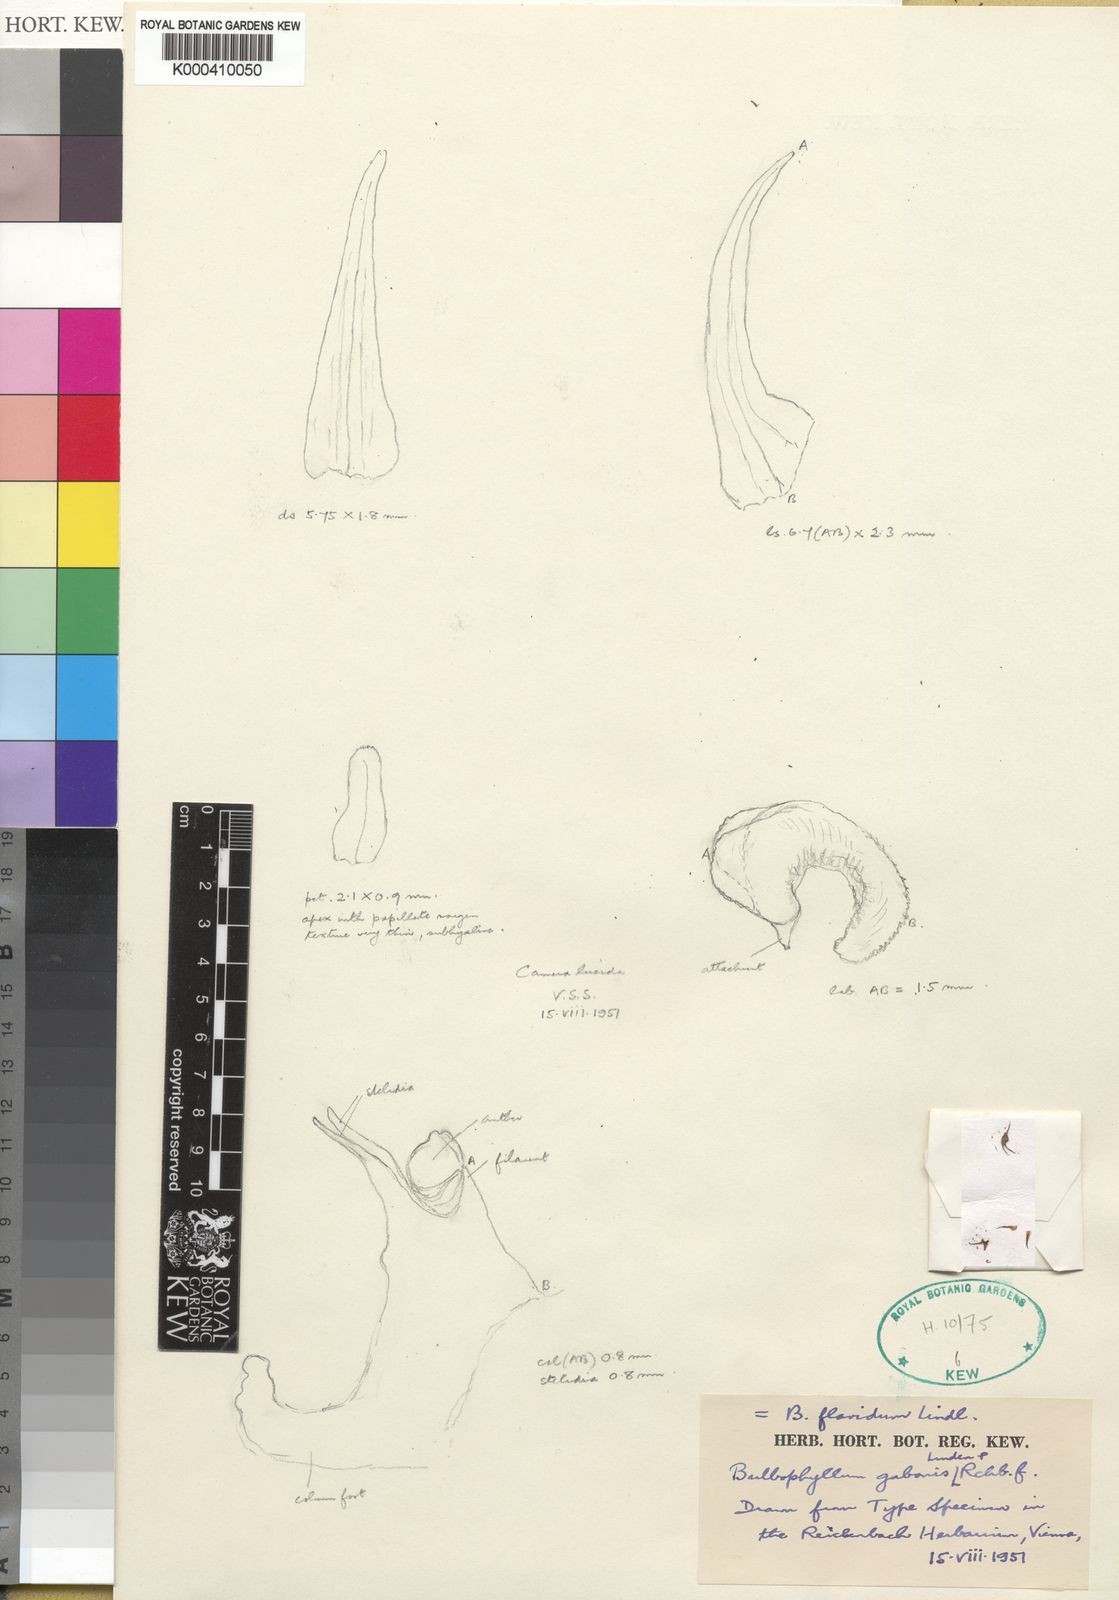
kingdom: Plantae
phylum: Tracheophyta
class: Liliopsida
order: Asparagales
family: Orchidaceae
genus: Bulbophyllum
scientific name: Bulbophyllum pumilum
